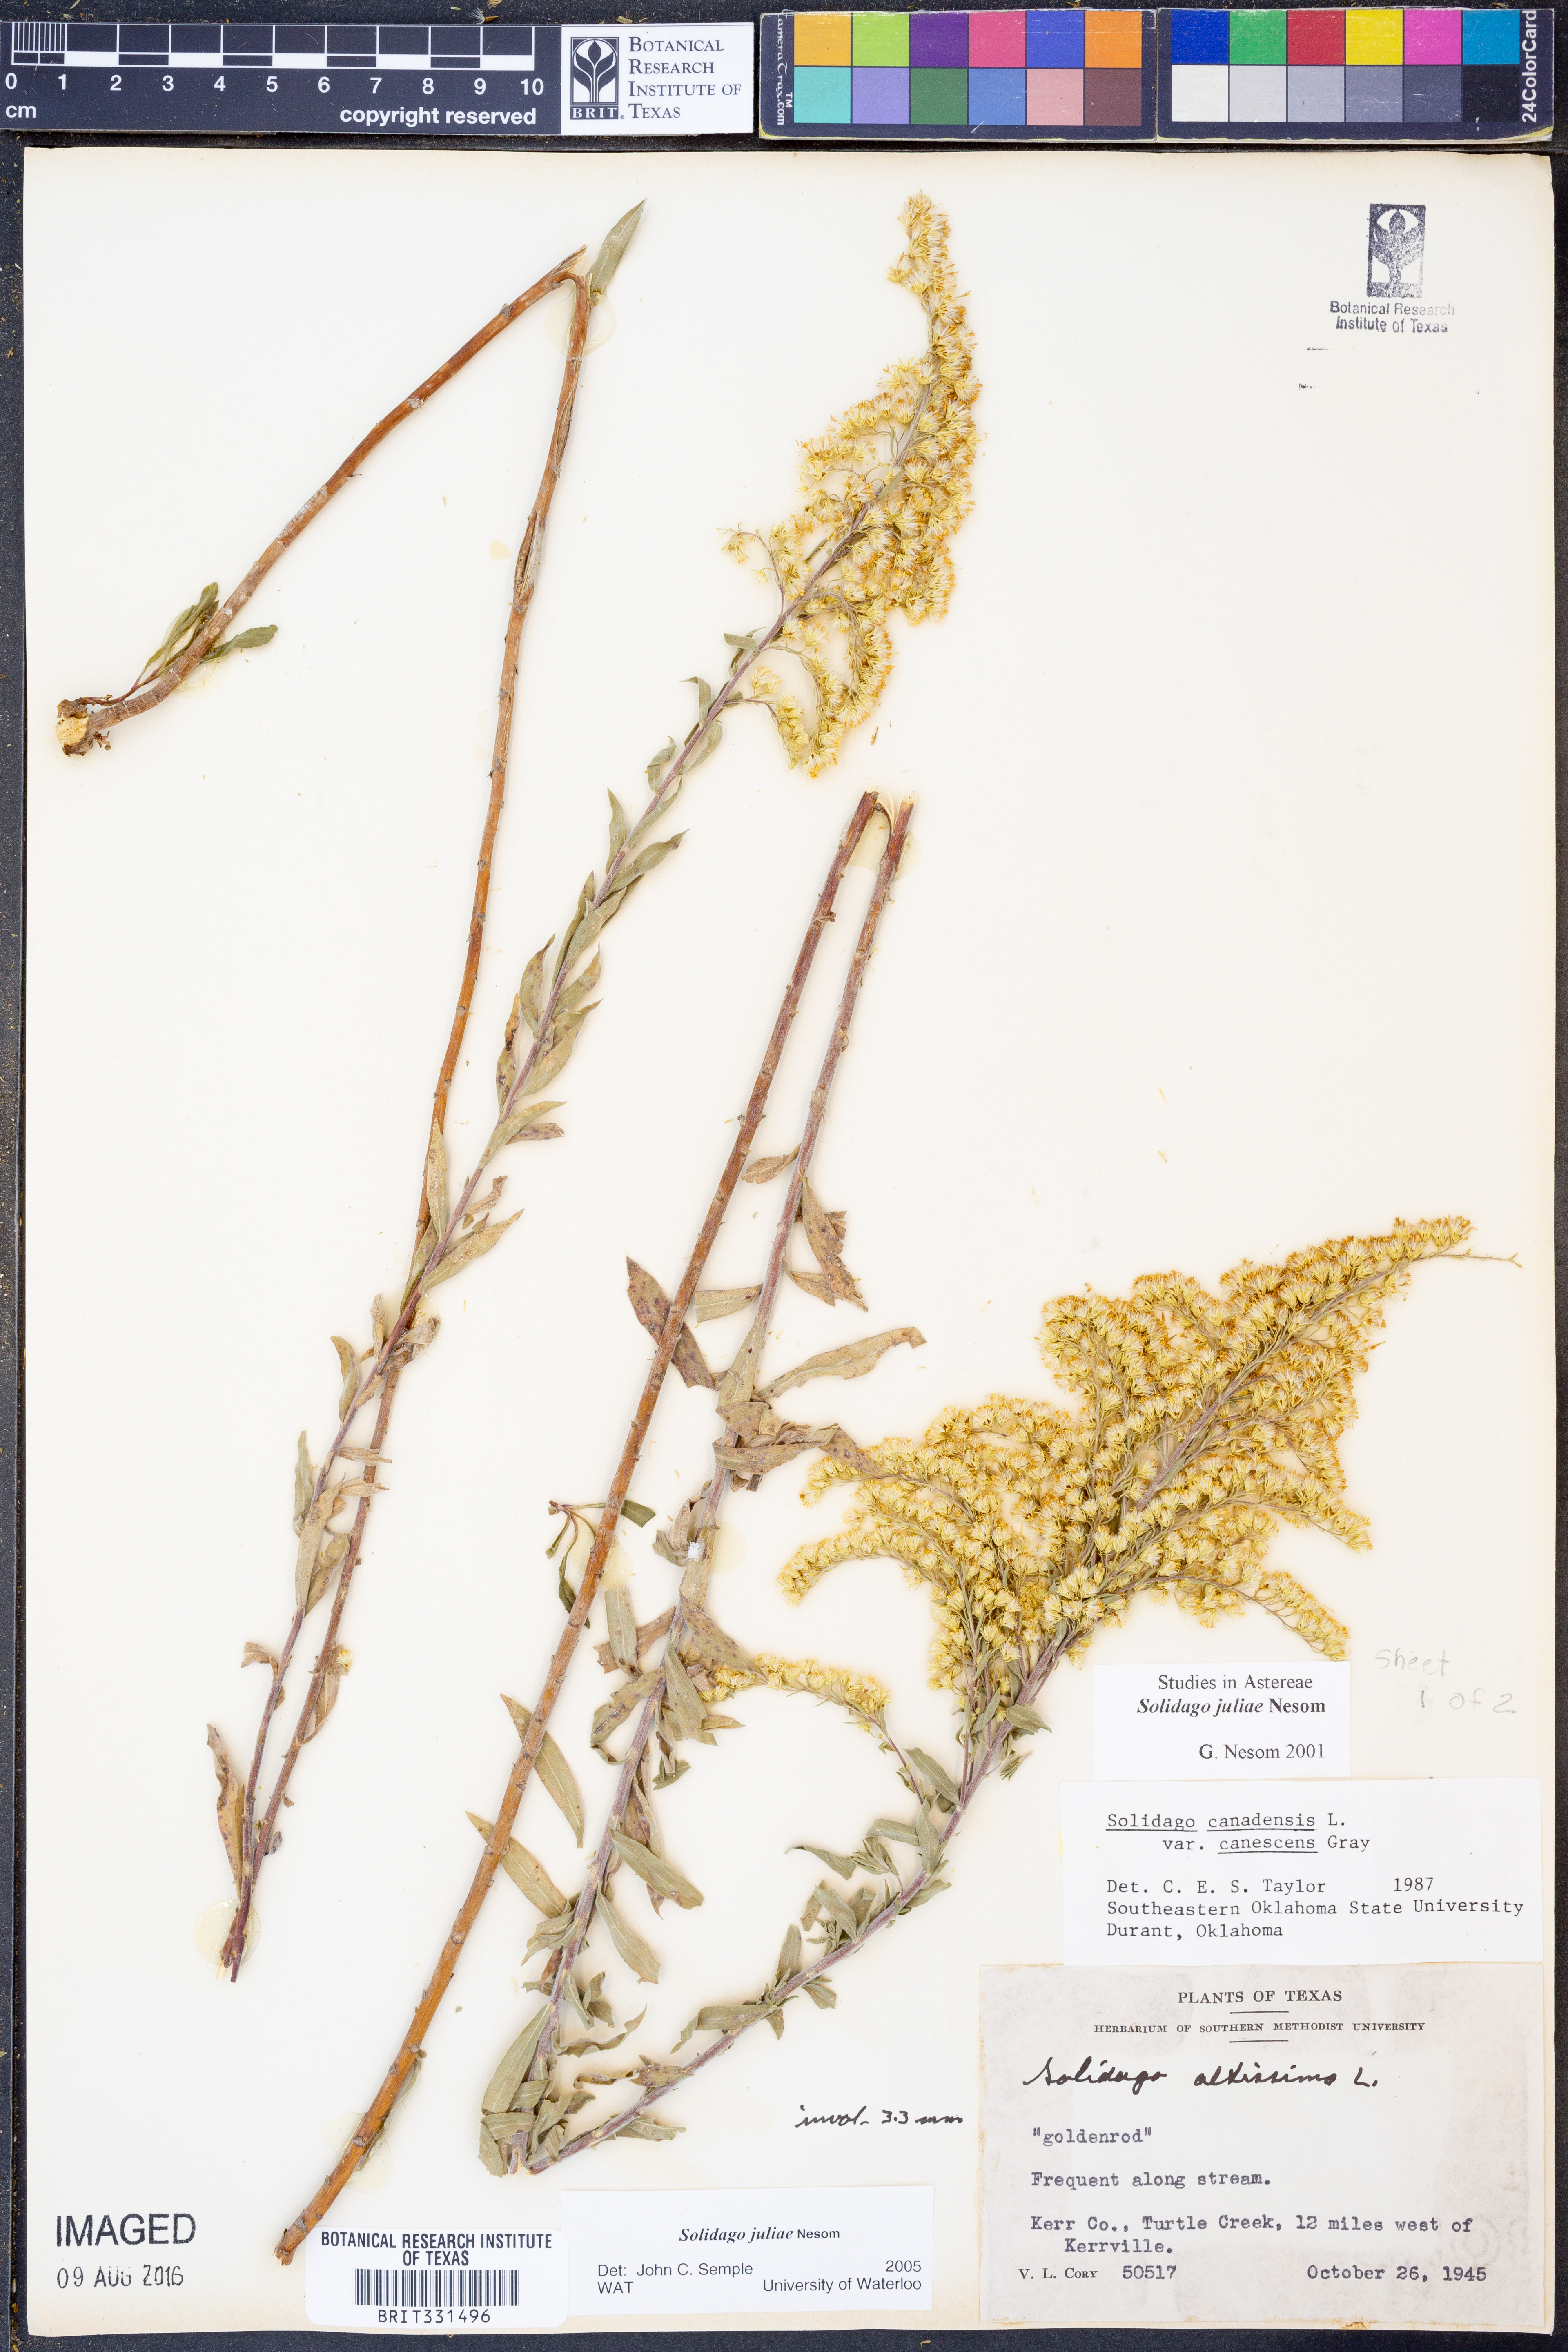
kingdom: Plantae
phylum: Tracheophyta
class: Magnoliopsida
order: Asterales
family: Asteraceae
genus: Solidago
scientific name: Solidago juliae
